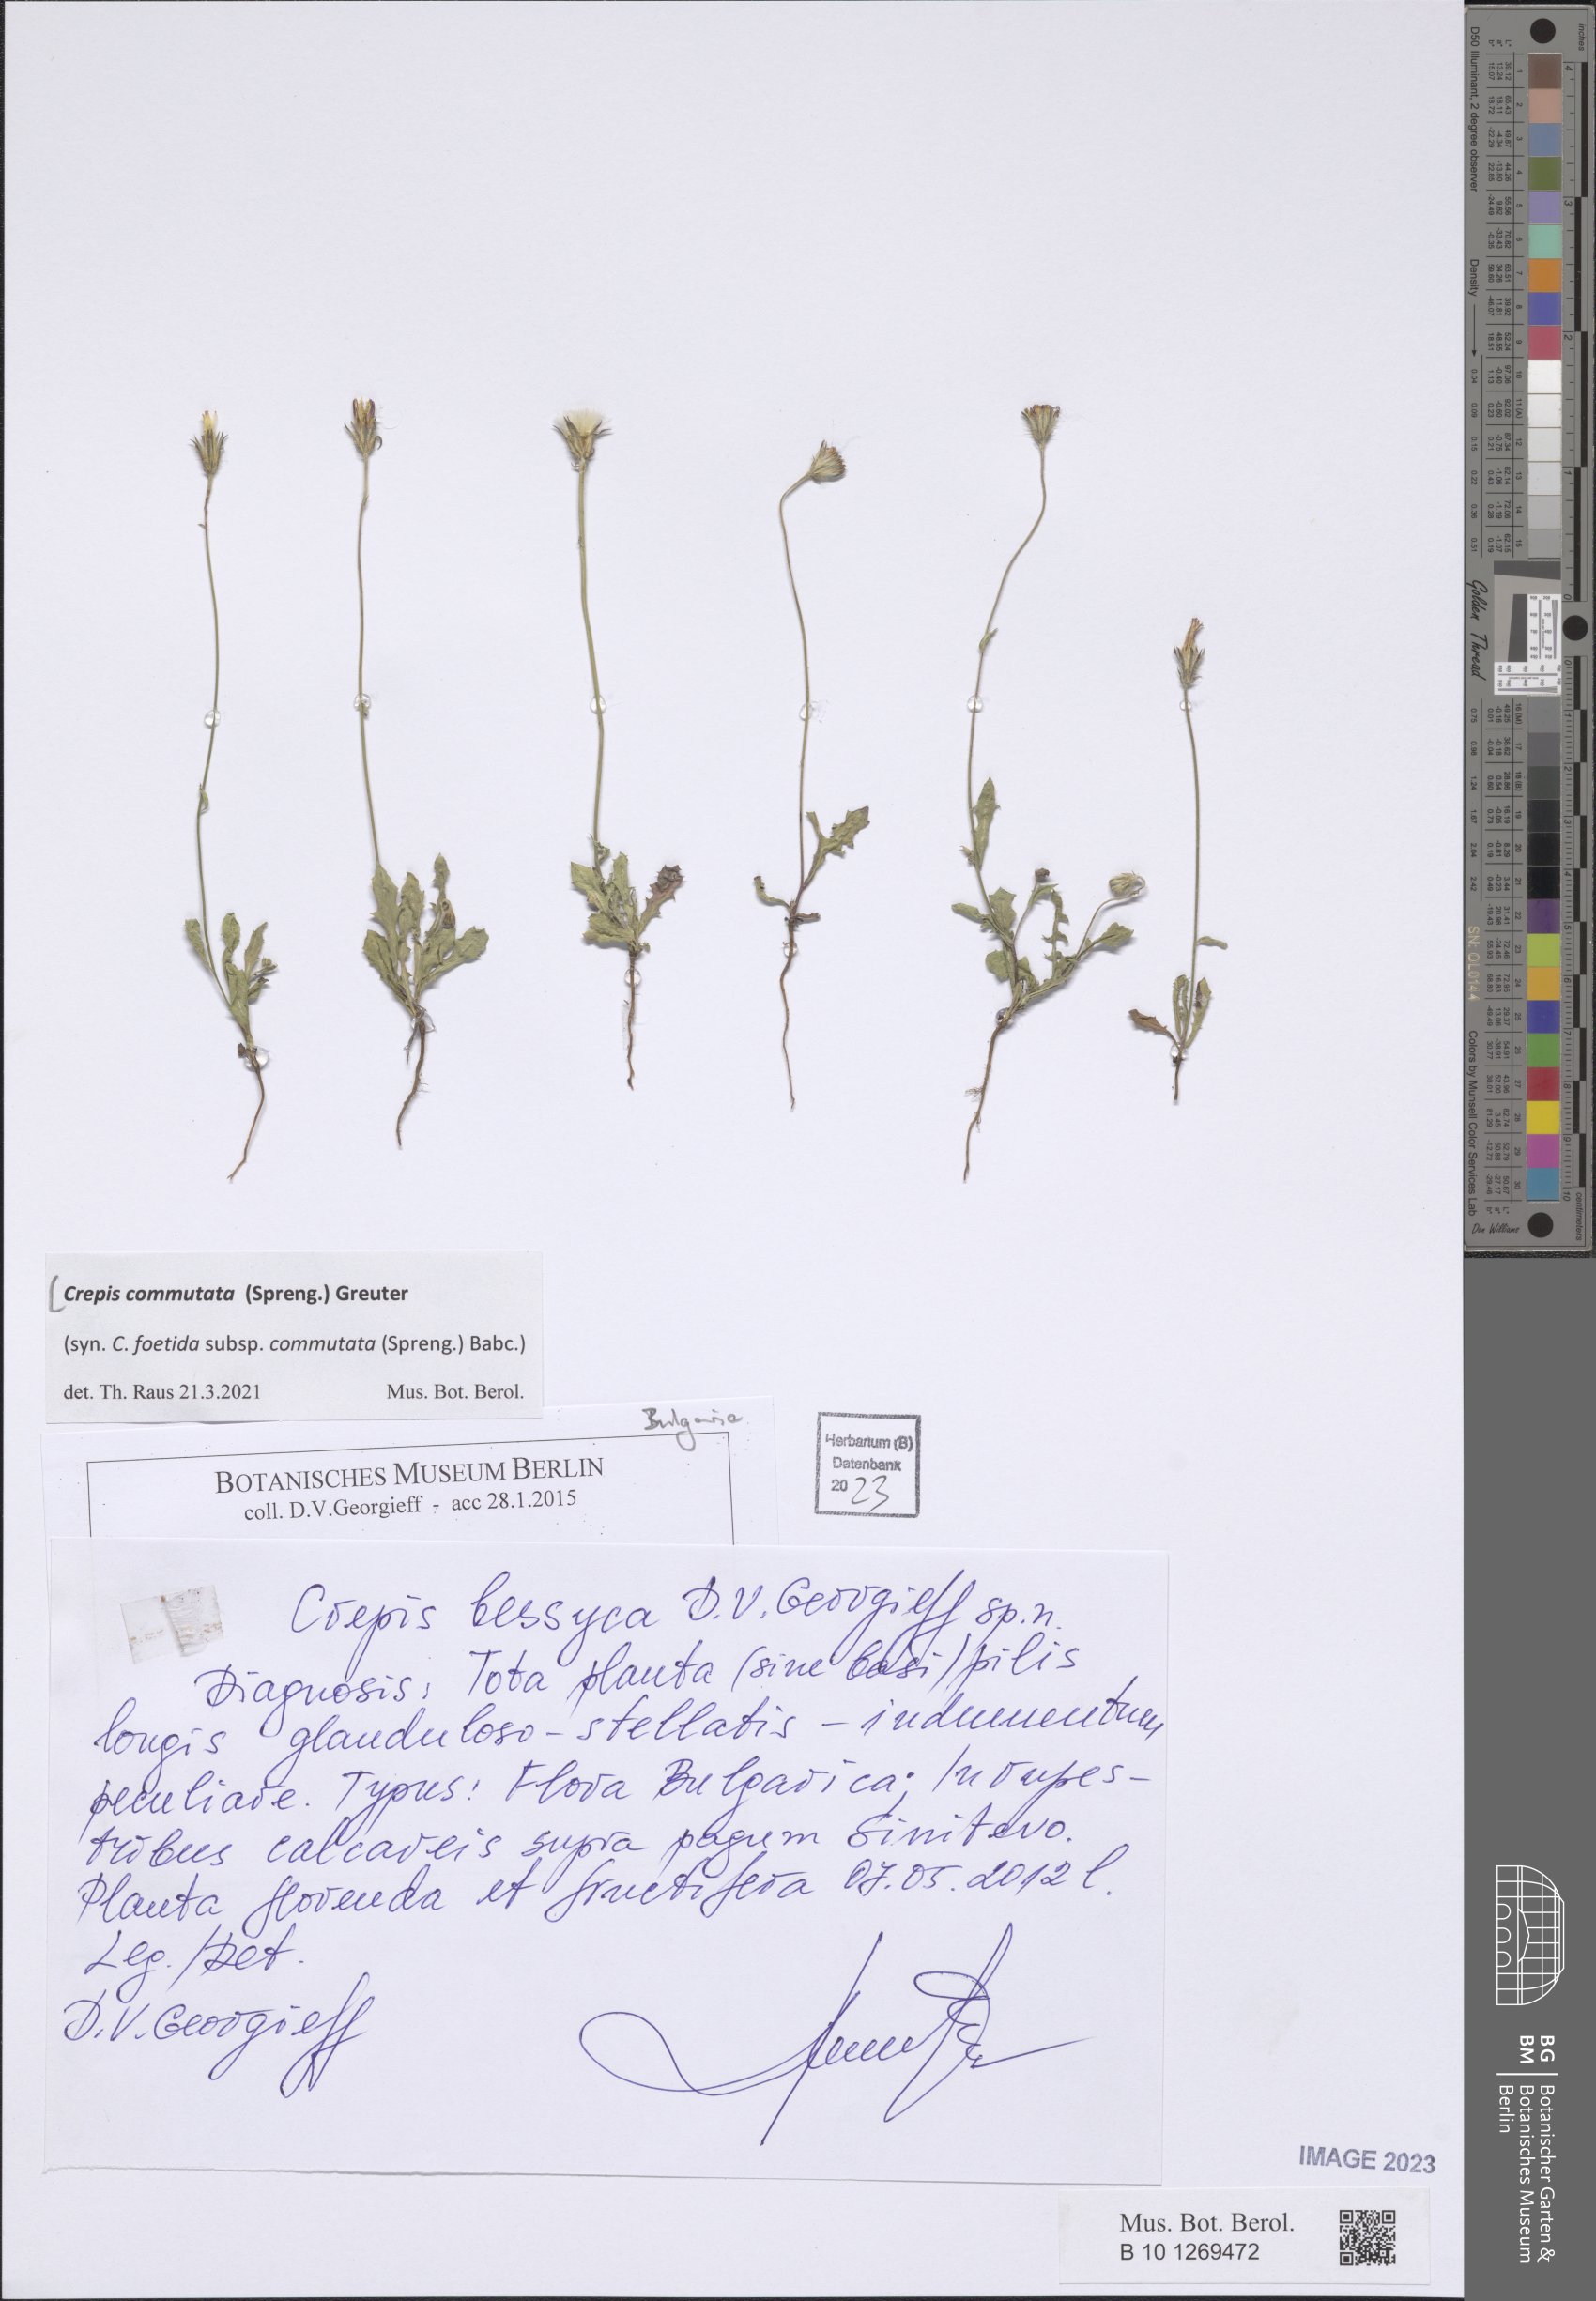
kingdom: Plantae
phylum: Tracheophyta
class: Magnoliopsida
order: Asterales
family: Asteraceae
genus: Crepis
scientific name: Crepis commutata
